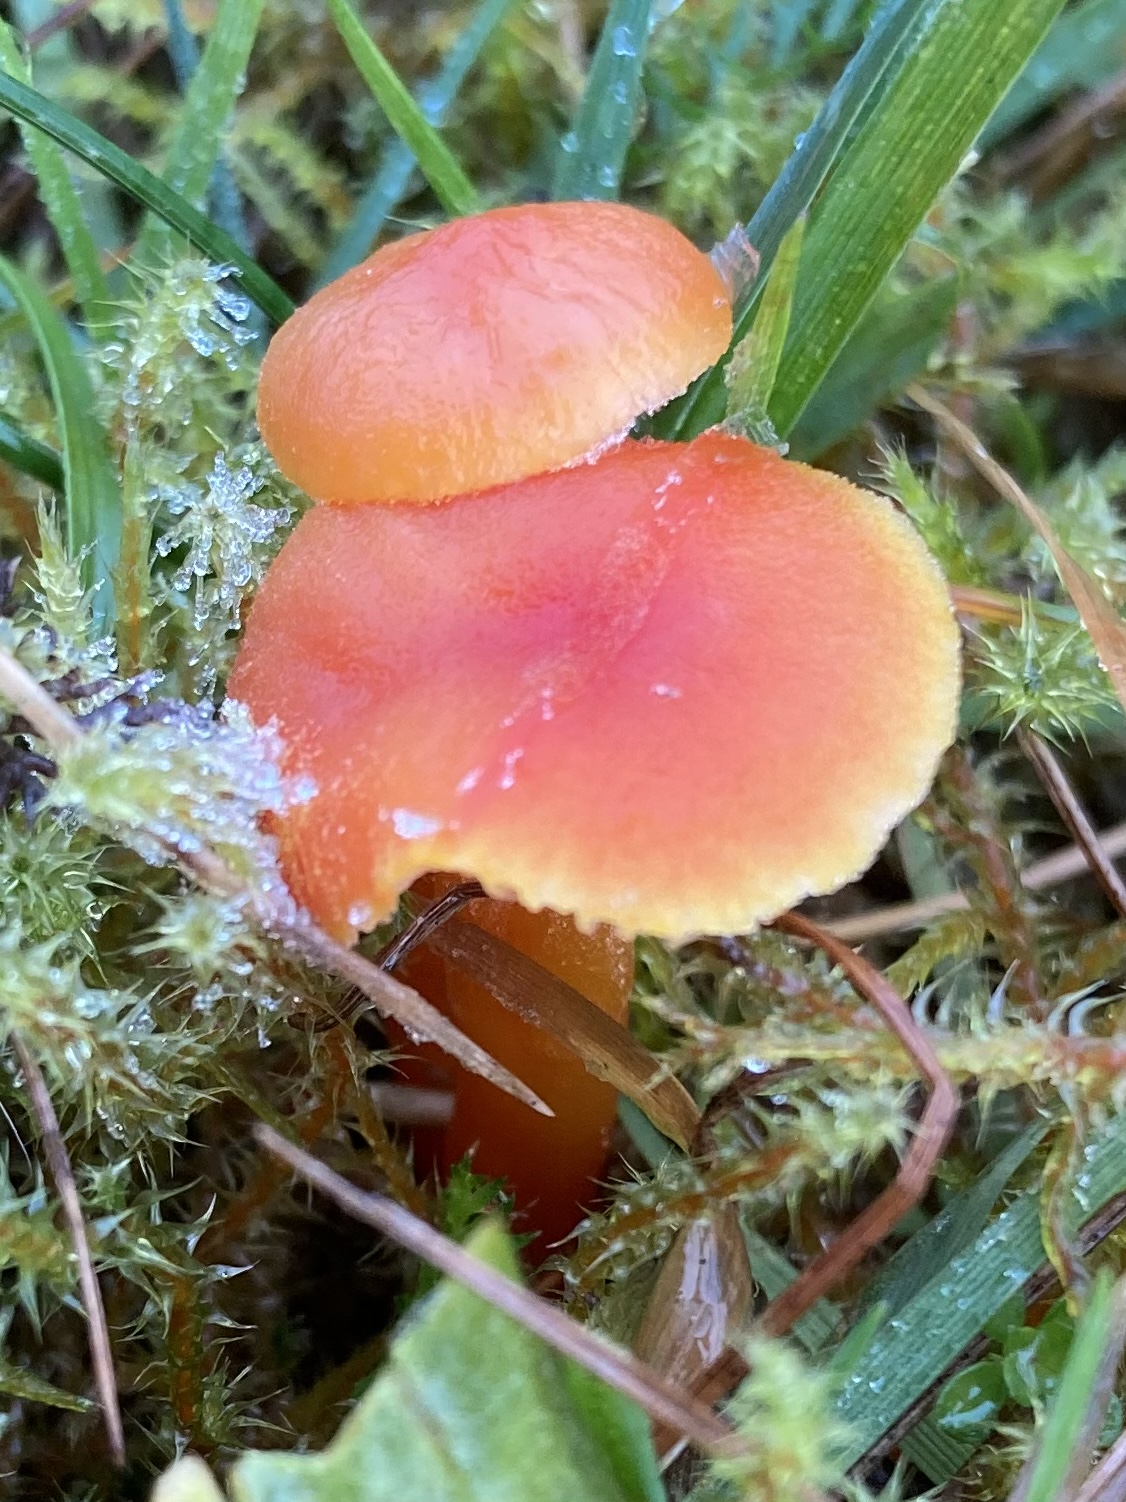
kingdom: Fungi
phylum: Basidiomycota
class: Agaricomycetes
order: Agaricales
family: Hygrophoraceae
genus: Hygrocybe
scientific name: Hygrocybe miniata
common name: mønje-vokshat
